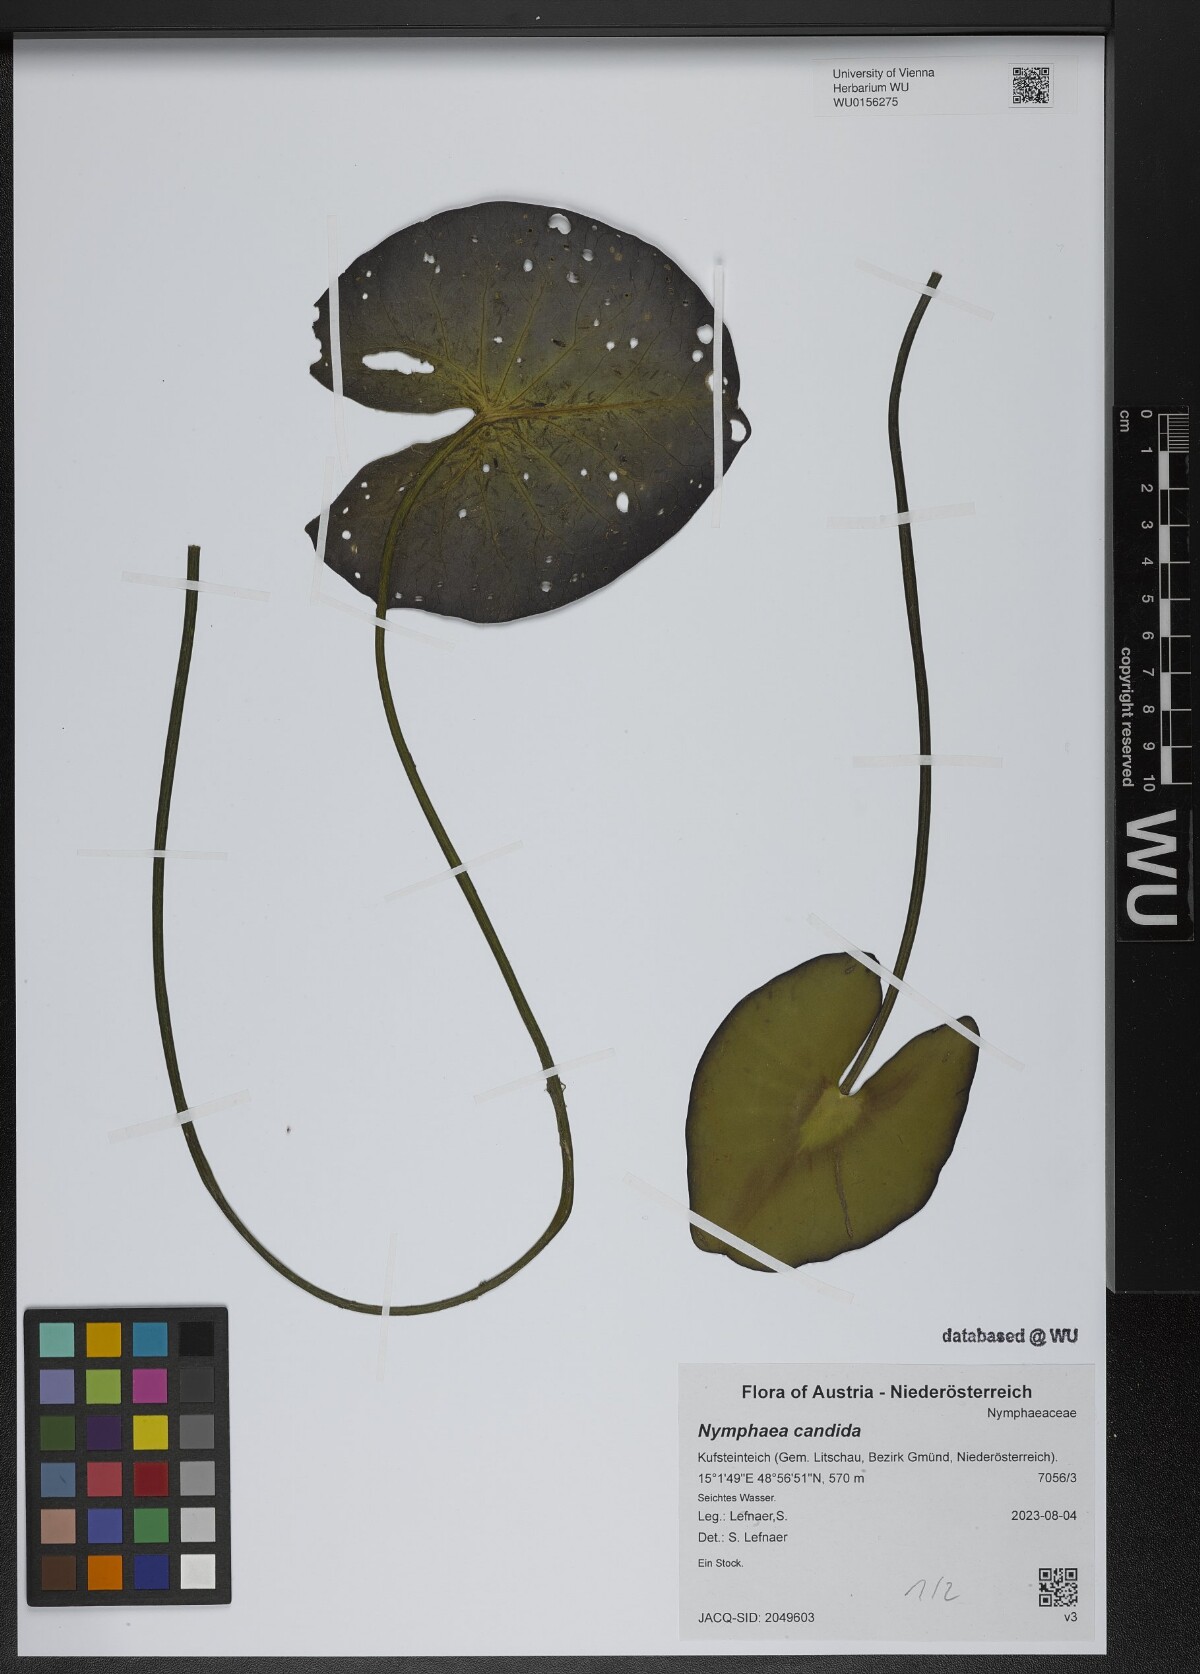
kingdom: Plantae
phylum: Tracheophyta
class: Magnoliopsida
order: Nymphaeales
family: Nymphaeaceae
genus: Nymphaea
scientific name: Nymphaea candida
